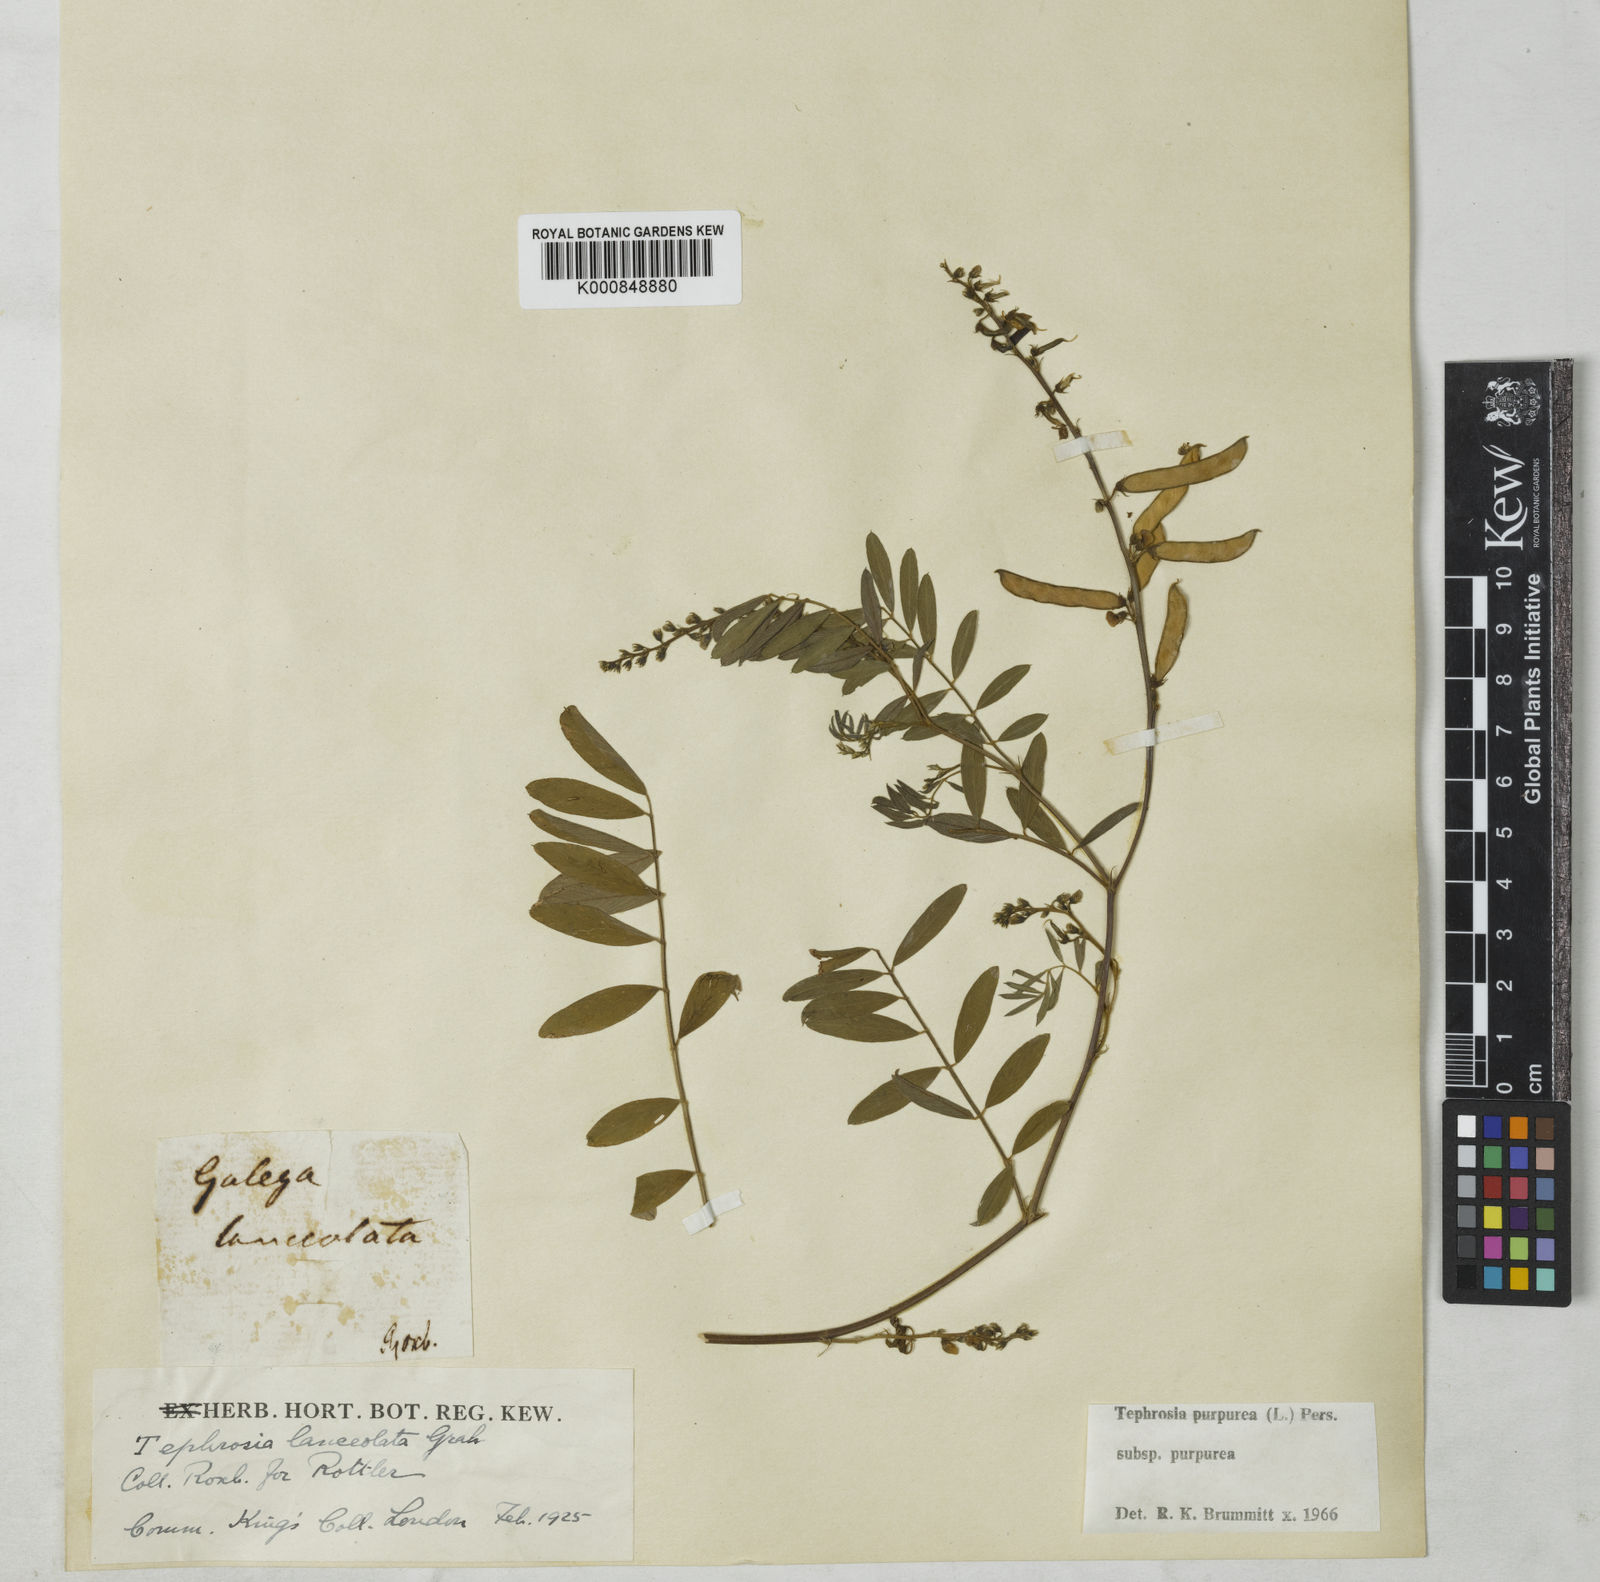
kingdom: Plantae
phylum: Tracheophyta
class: Magnoliopsida
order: Fabales
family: Fabaceae
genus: Tephrosia
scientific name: Tephrosia purpurea
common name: Fishpoison
